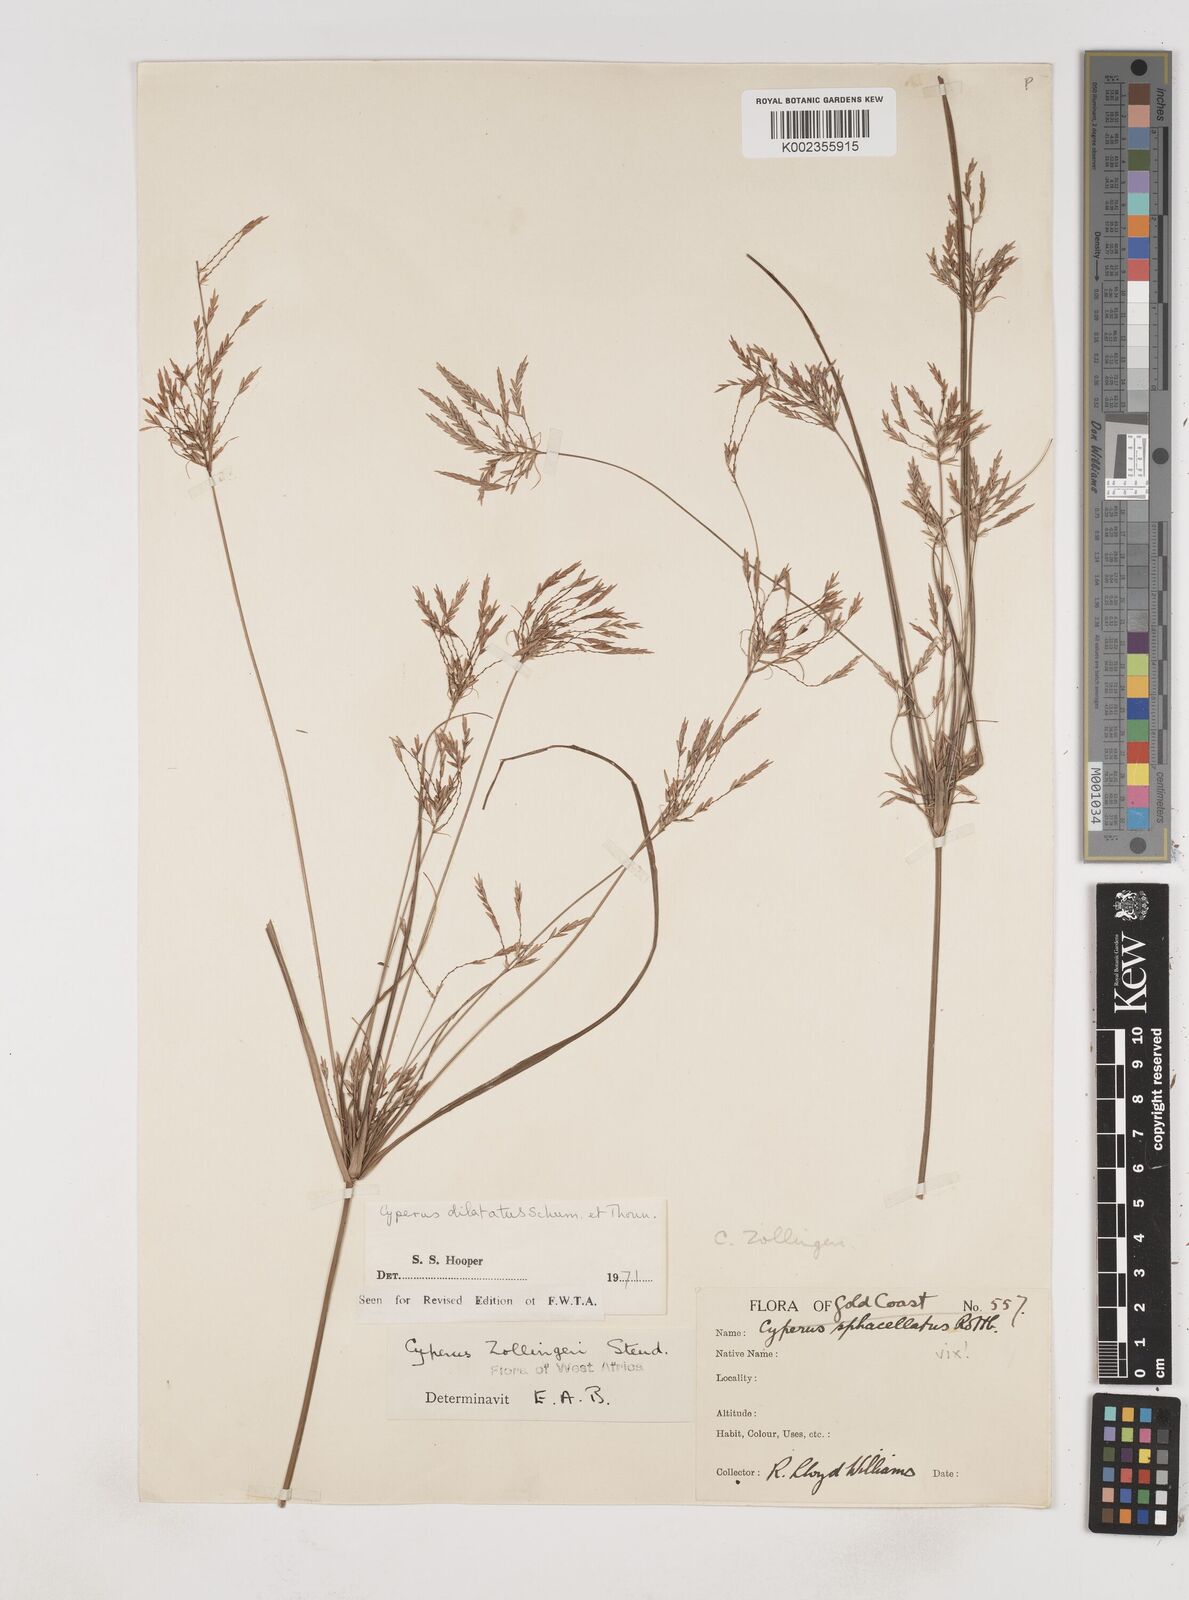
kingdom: Plantae
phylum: Tracheophyta
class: Liliopsida
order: Poales
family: Cyperaceae
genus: Cyperus
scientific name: Cyperus dilatatus
